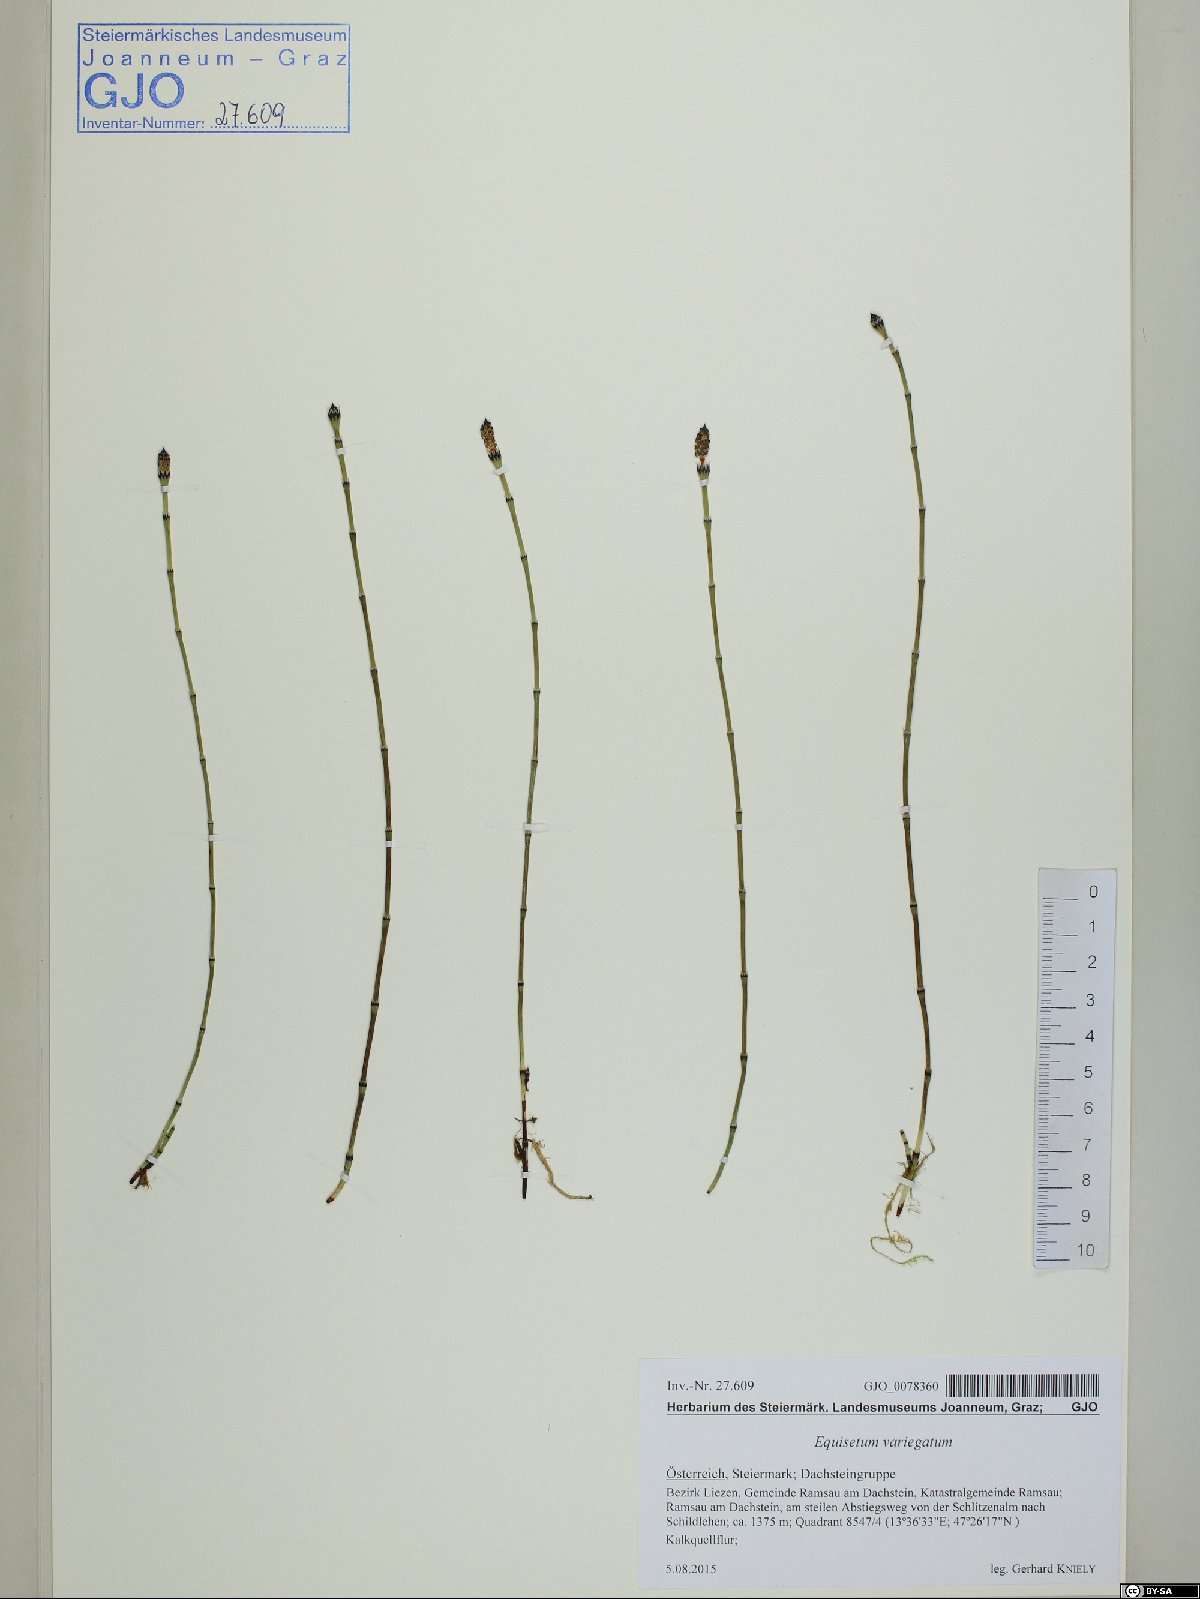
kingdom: Plantae
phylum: Tracheophyta
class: Polypodiopsida
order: Equisetales
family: Equisetaceae
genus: Equisetum
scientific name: Equisetum variegatum
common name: Variegated horsetail
